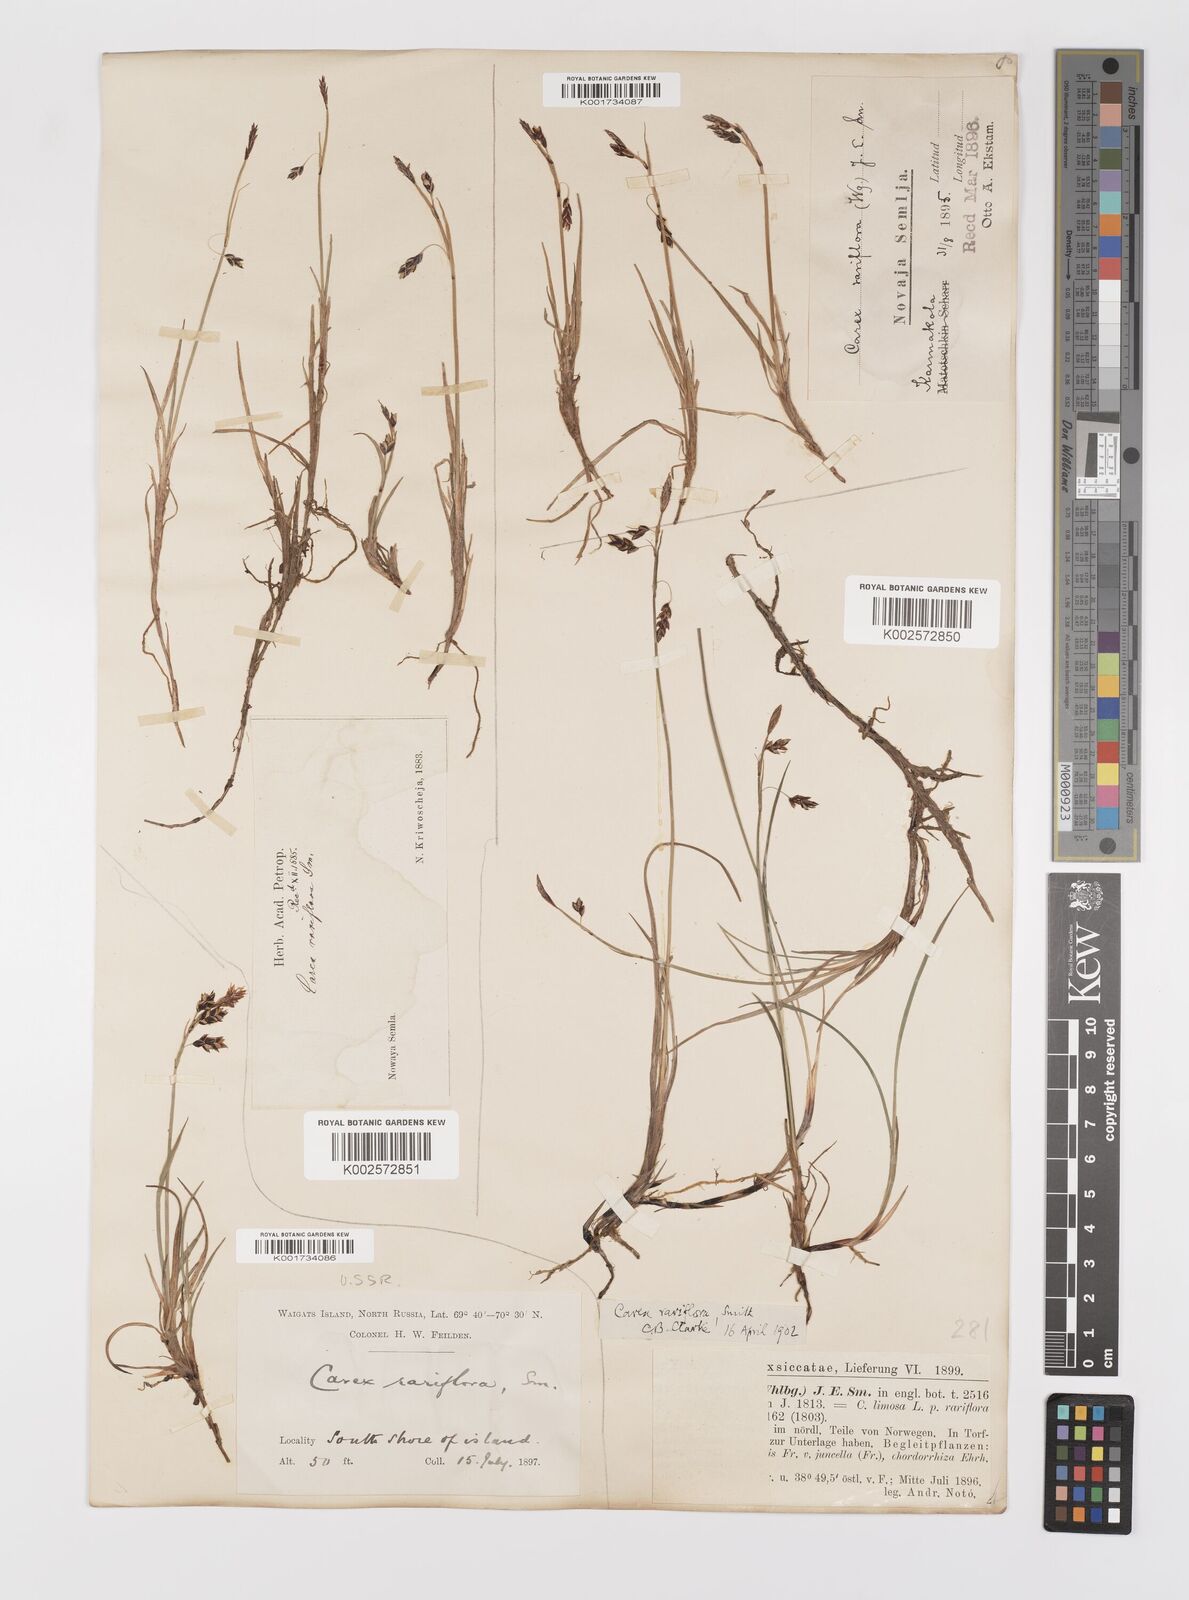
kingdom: Plantae
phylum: Tracheophyta
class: Liliopsida
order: Poales
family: Cyperaceae
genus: Carex
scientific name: Carex rariflora
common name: Loose-flowered alpine sedge
